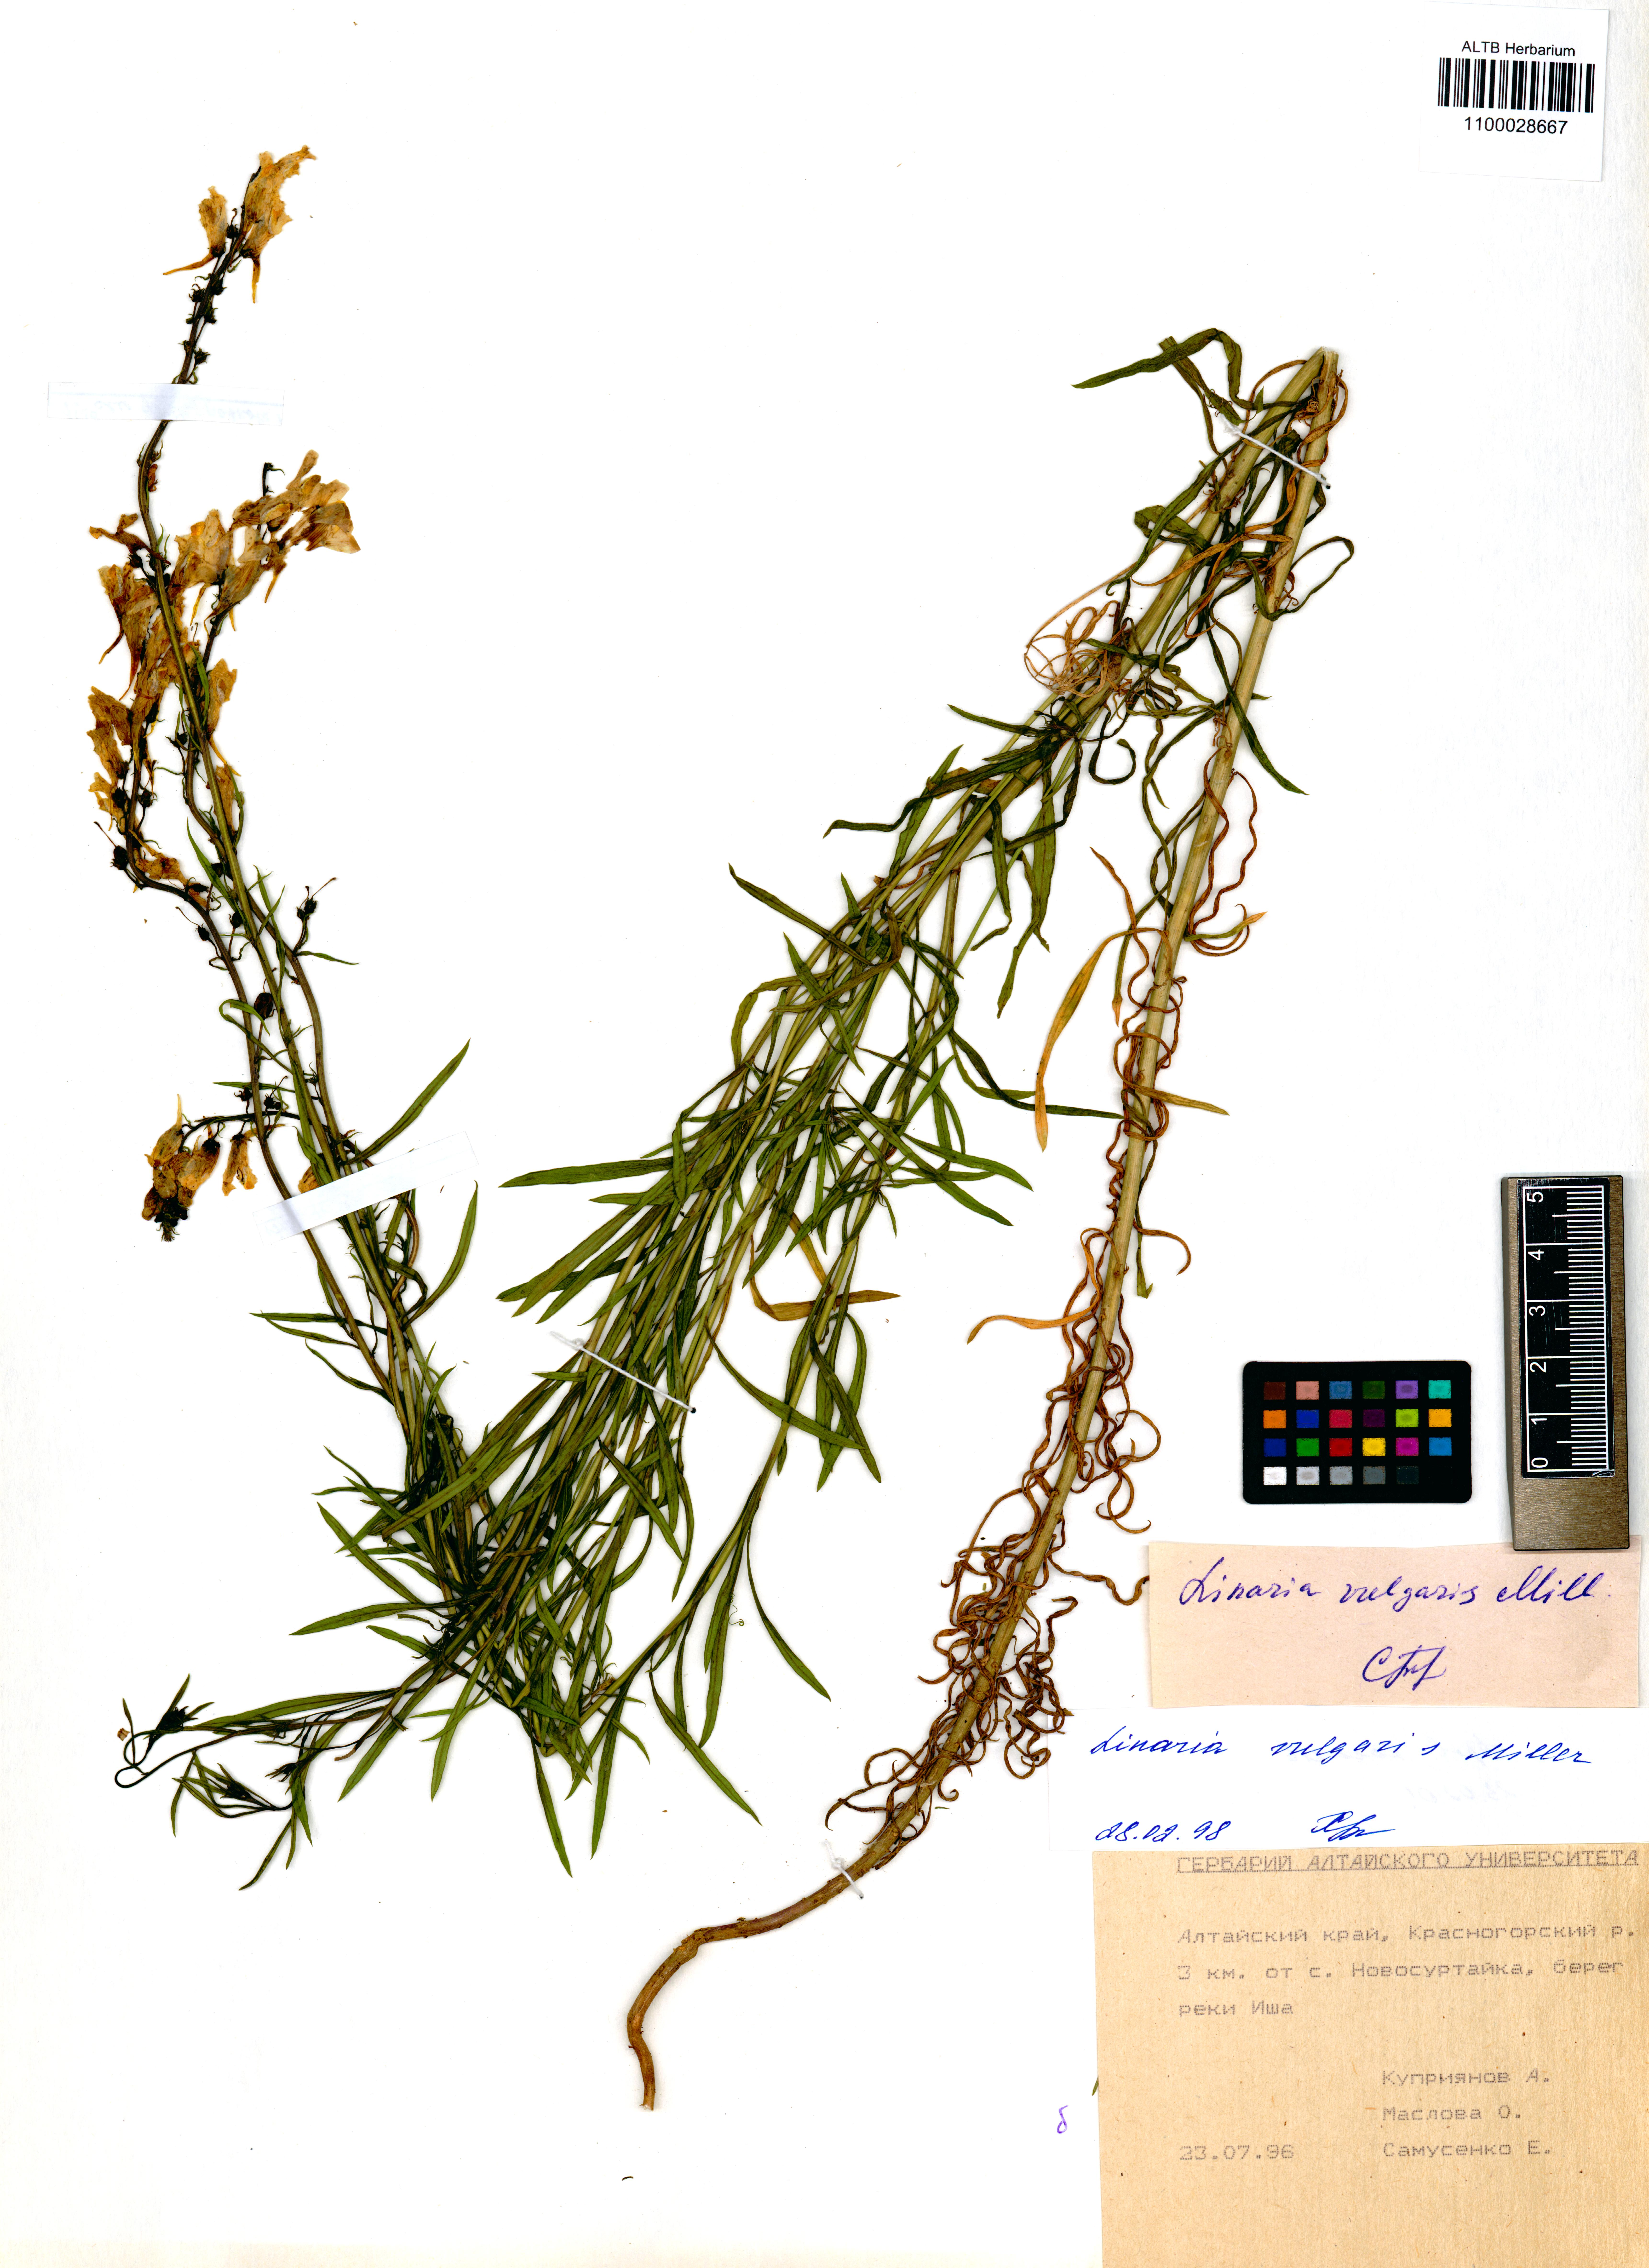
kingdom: Plantae
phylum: Tracheophyta
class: Magnoliopsida
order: Lamiales
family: Plantaginaceae
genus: Linaria
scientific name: Linaria vulgaris
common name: Butter and eggs
